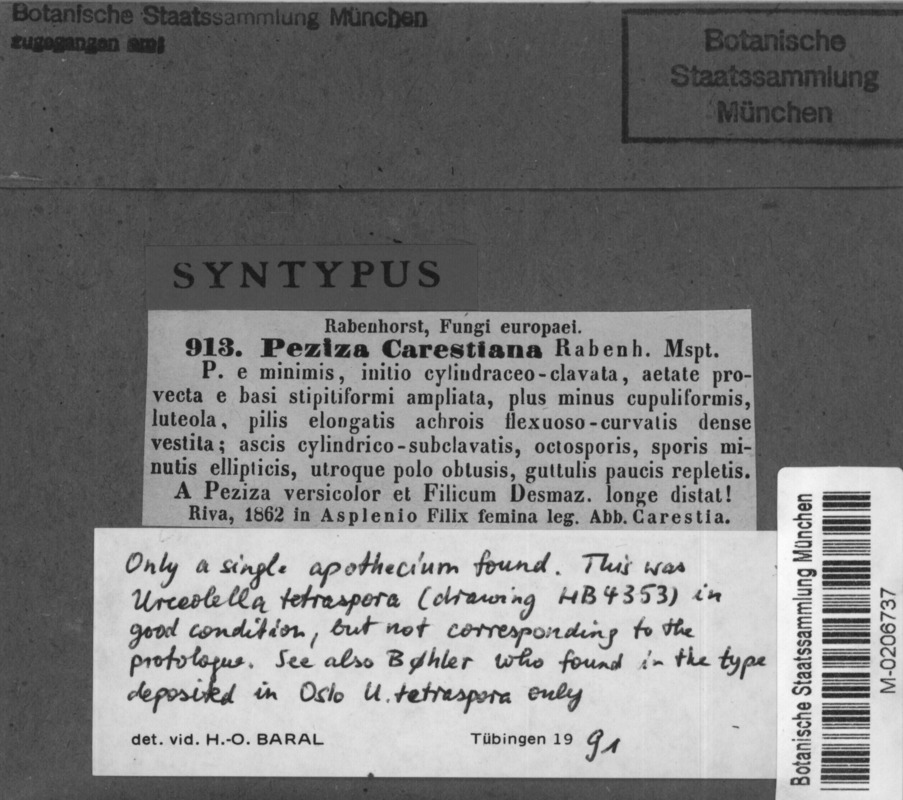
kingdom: Fungi
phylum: Ascomycota
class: Leotiomycetes
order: Helotiales
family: Hyaloscyphaceae
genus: Unguicularia
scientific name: Unguicularia carestiana
